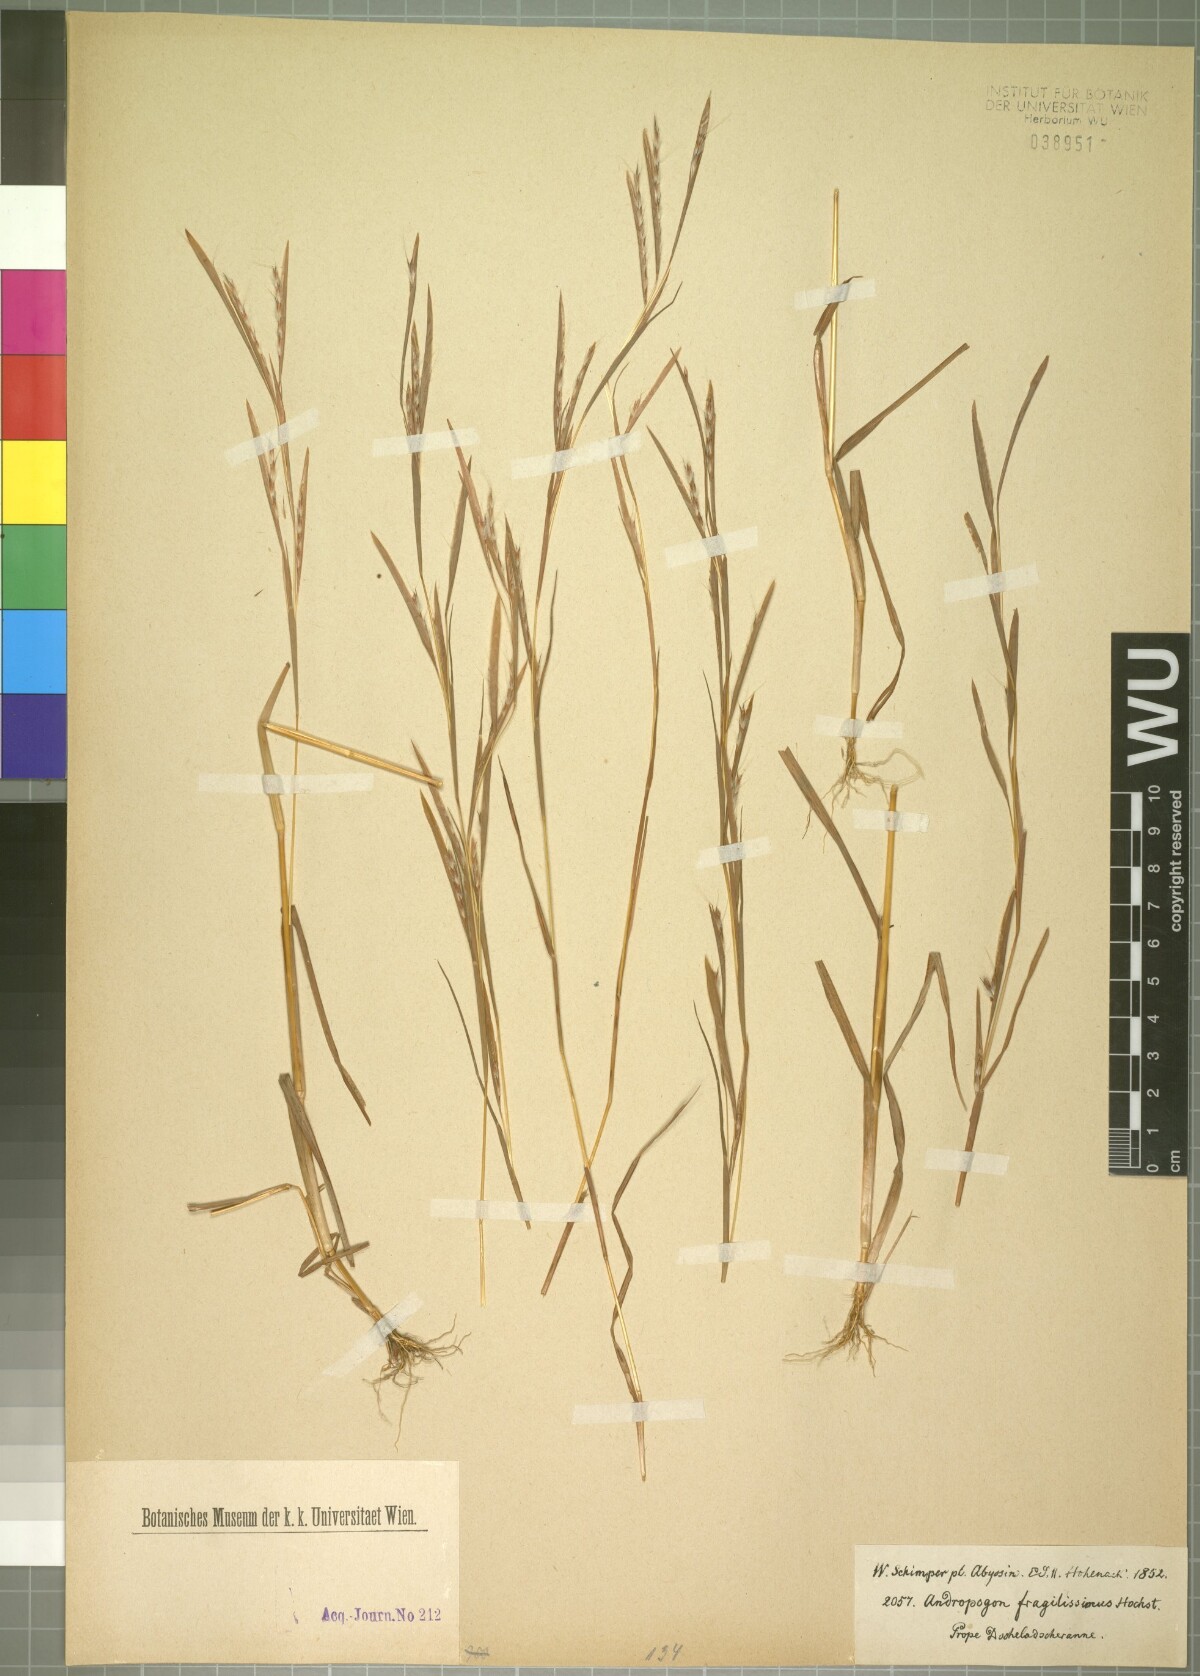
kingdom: Plantae
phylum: Tracheophyta
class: Liliopsida
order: Poales
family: Poaceae
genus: Schizachyrium
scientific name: Schizachyrium exile
